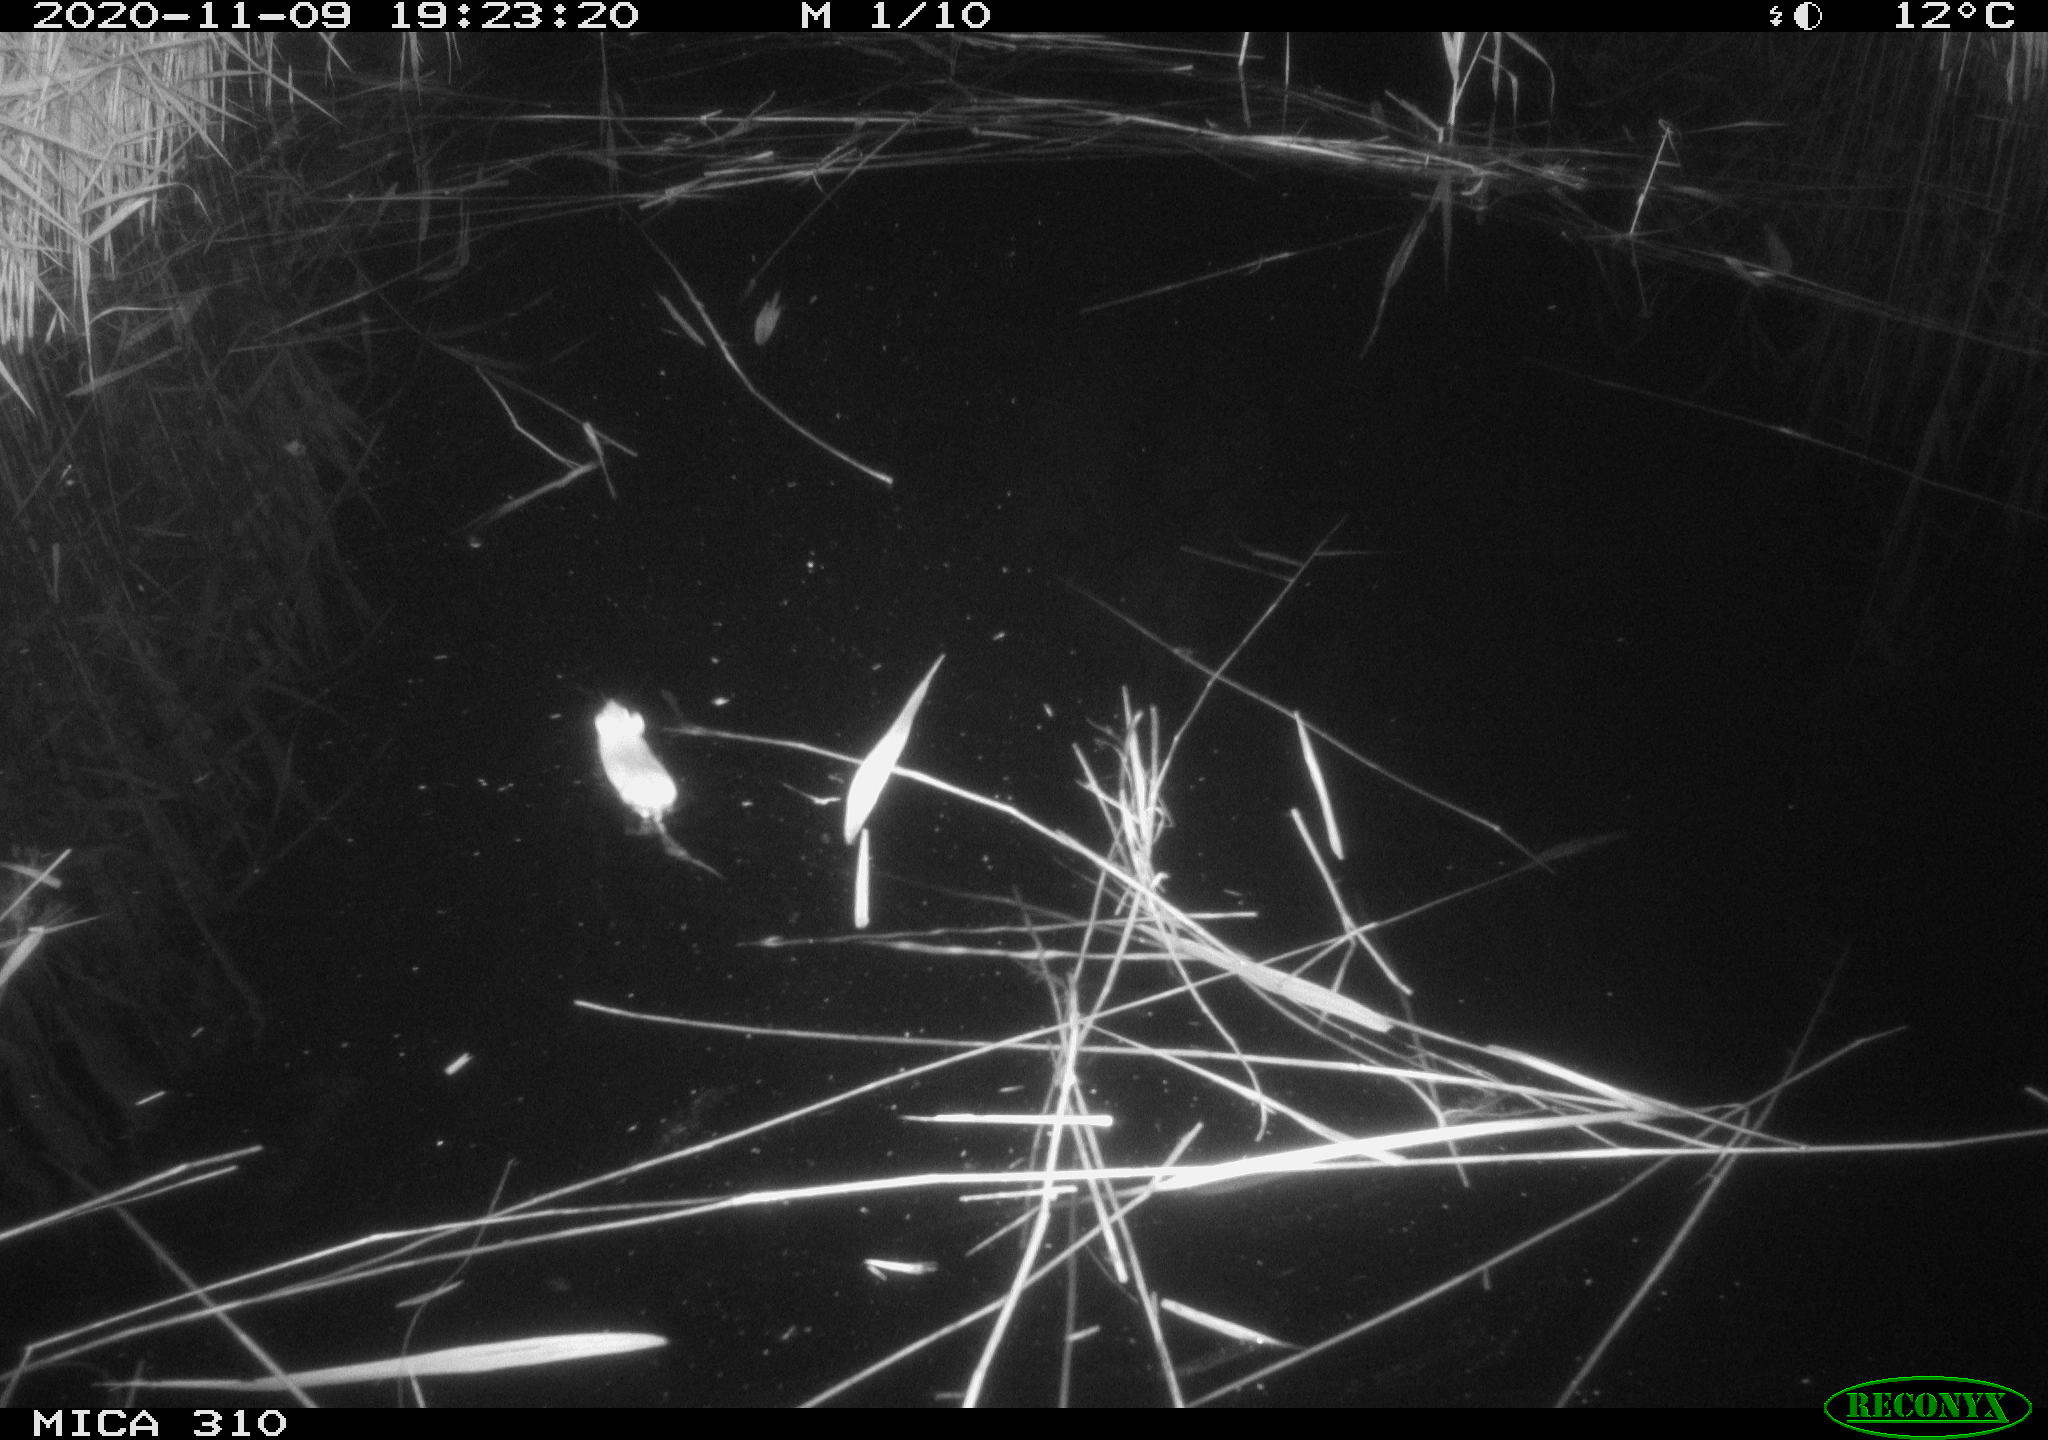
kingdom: Animalia
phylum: Chordata
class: Mammalia
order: Rodentia
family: Muridae
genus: Rattus
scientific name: Rattus norvegicus
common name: Brown rat
